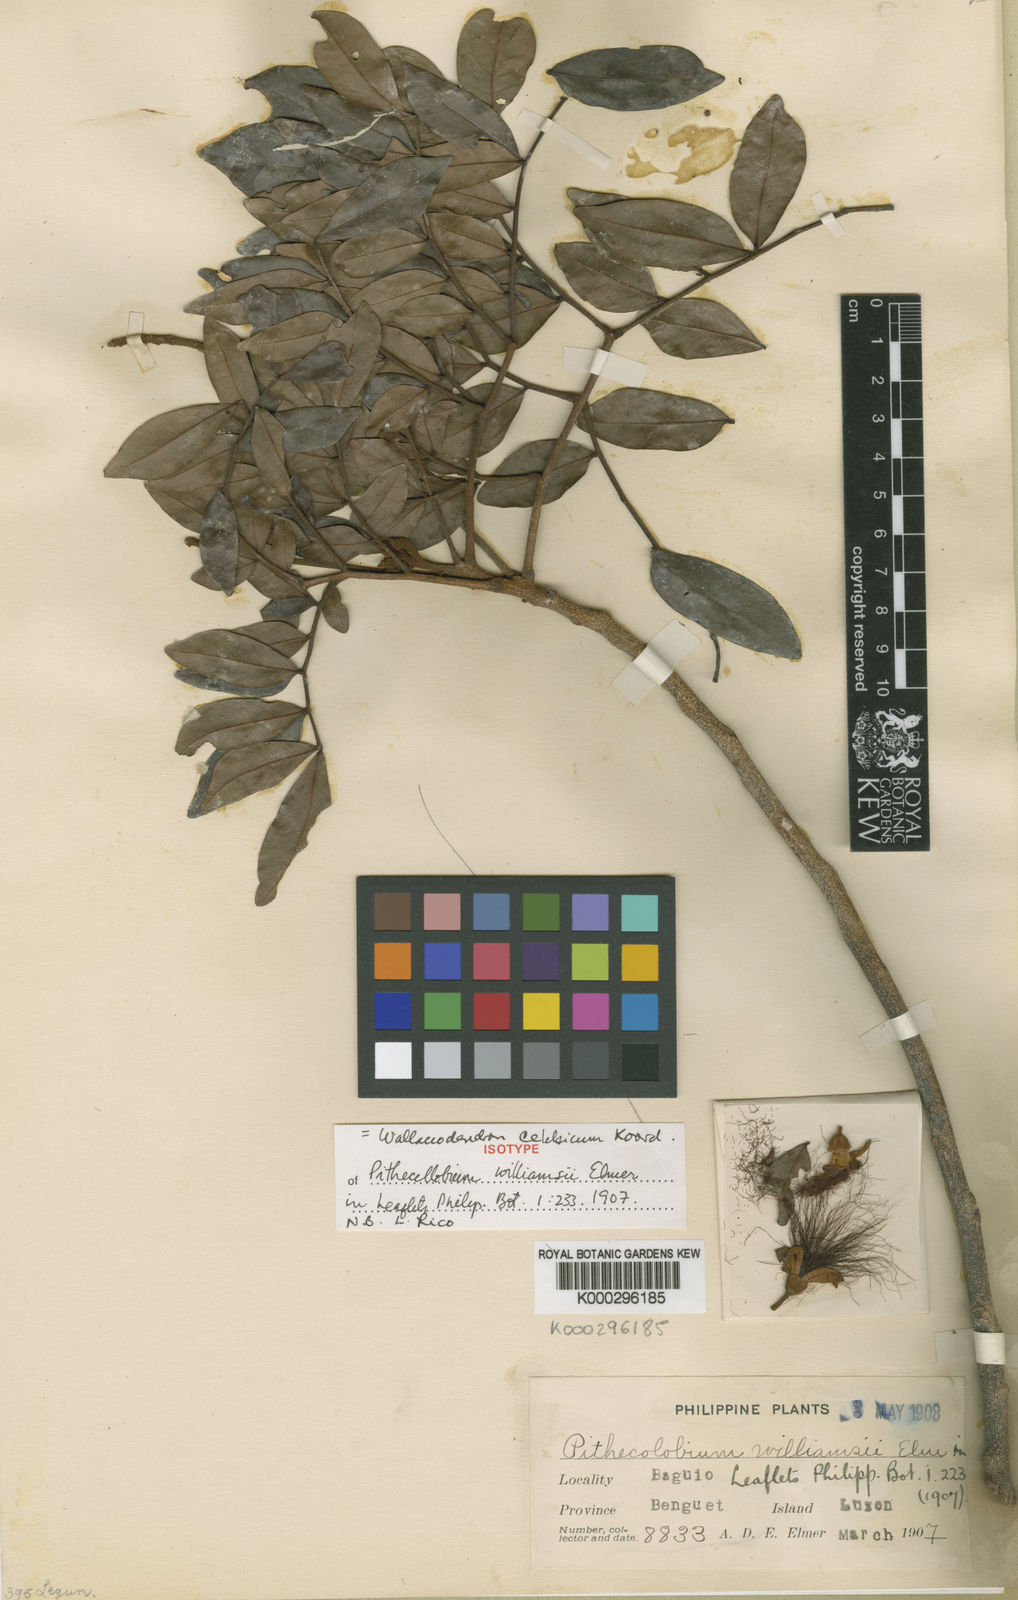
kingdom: Plantae
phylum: Tracheophyta
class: Magnoliopsida
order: Fabales
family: Fabaceae
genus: Wallaceodendron
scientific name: Wallaceodendron celebicum
